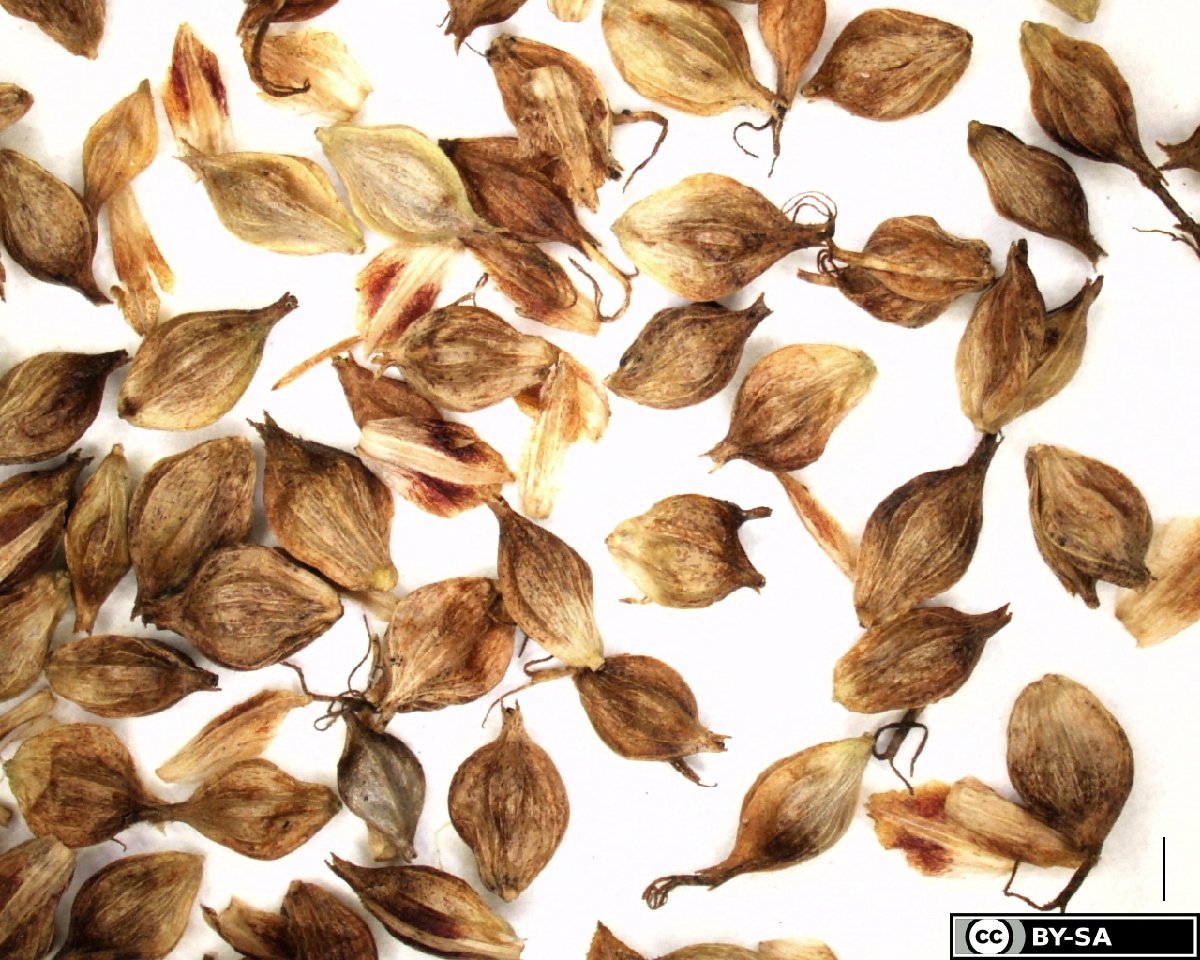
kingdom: Plantae
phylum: Tracheophyta
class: Liliopsida
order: Poales
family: Cyperaceae
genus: Carex
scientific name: Carex distans
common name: Distant sedge
